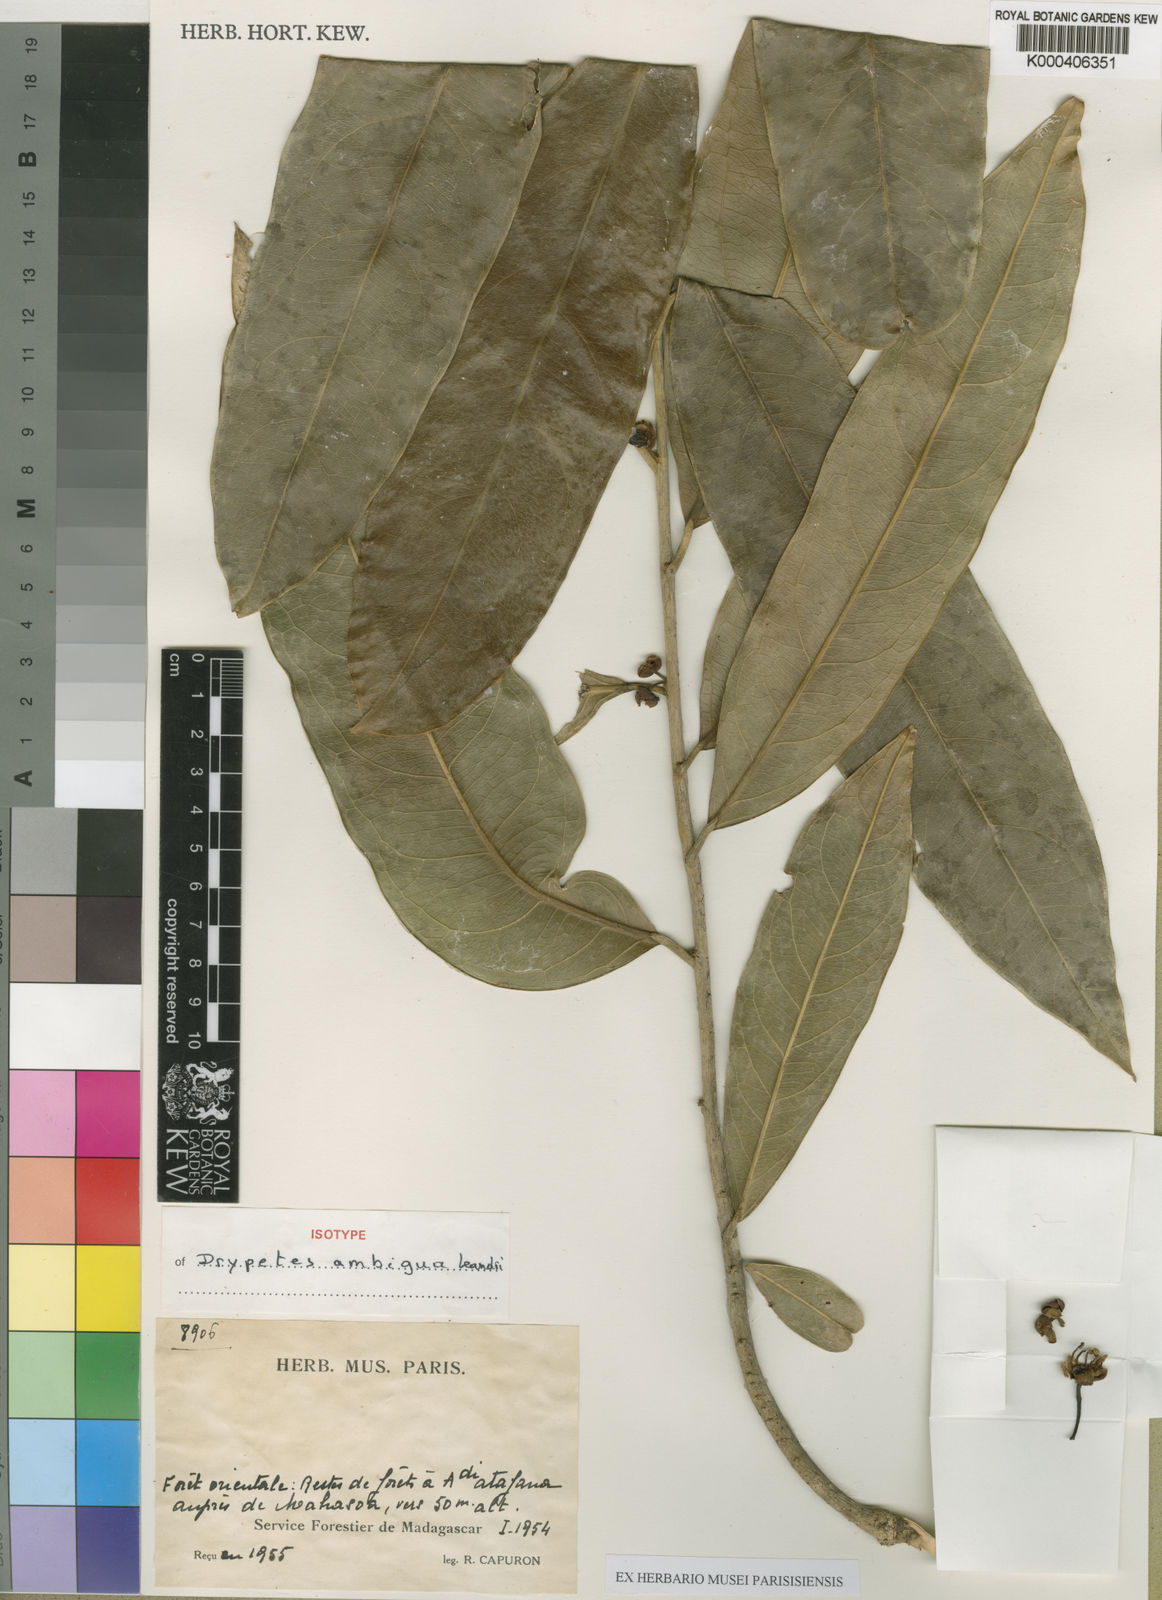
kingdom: Plantae
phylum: Tracheophyta
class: Magnoliopsida
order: Malpighiales
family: Putranjivaceae
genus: Drypetes
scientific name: Drypetes ambigua
